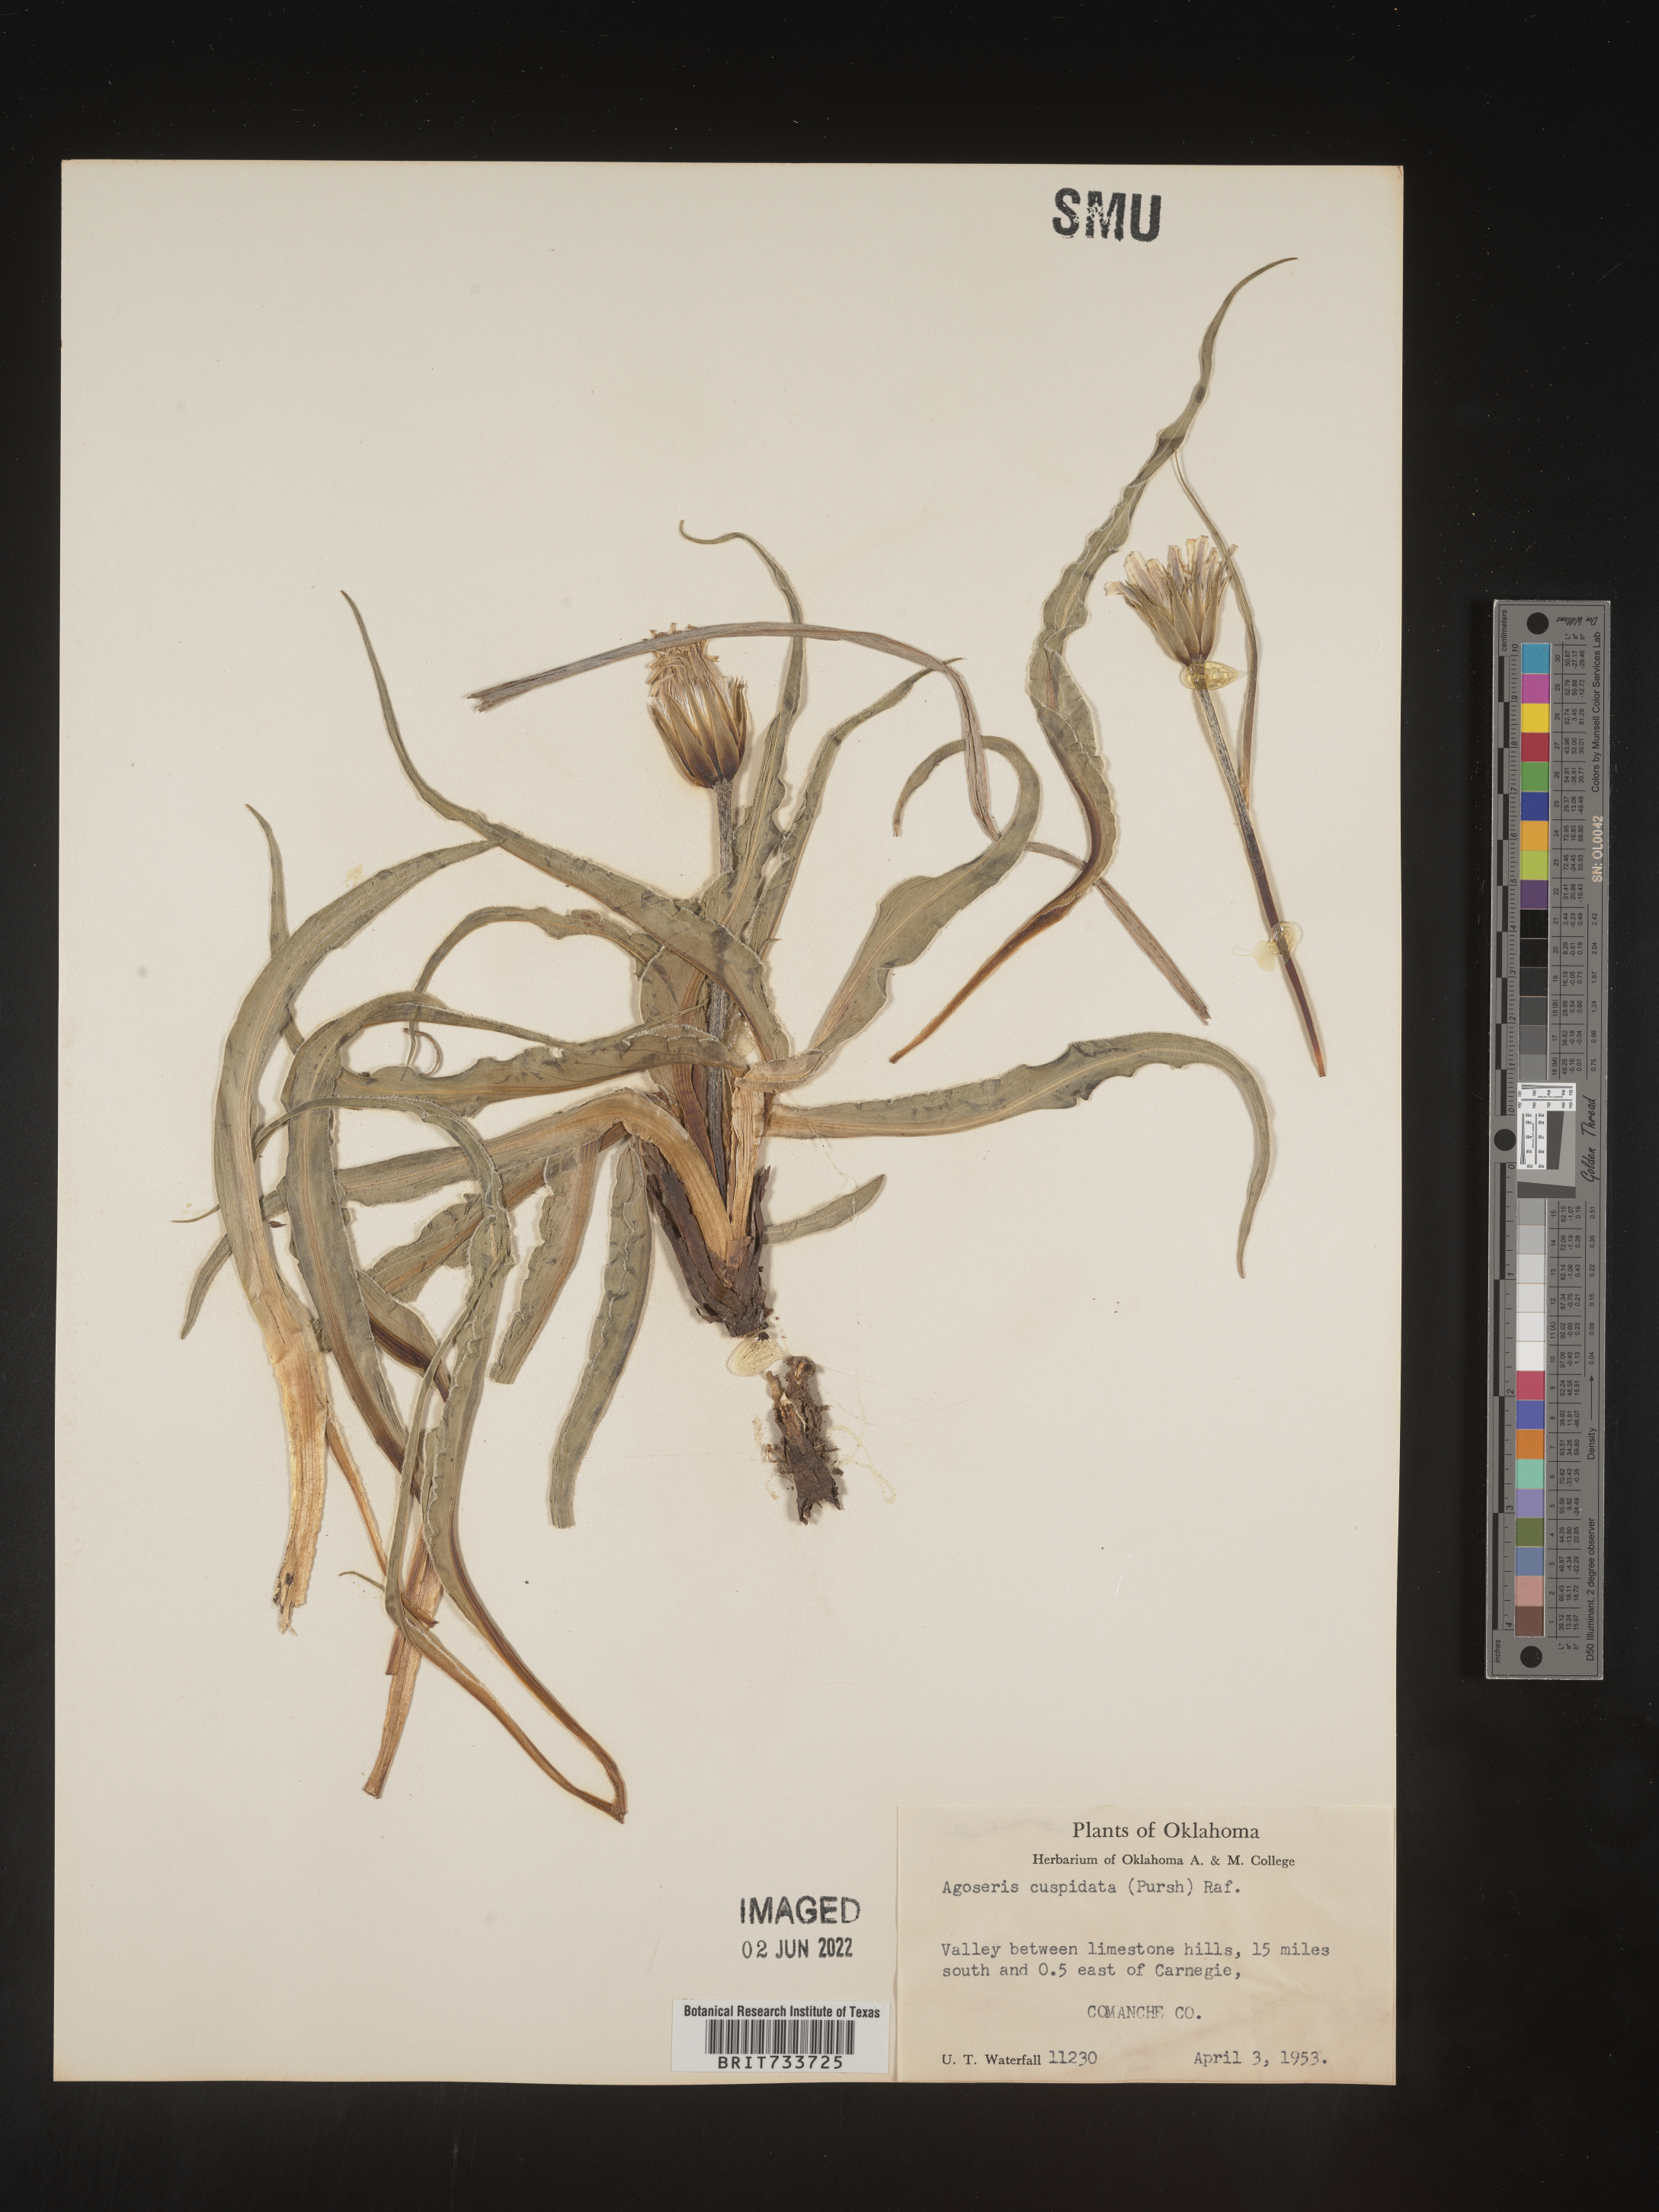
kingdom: Plantae
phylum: Tracheophyta
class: Magnoliopsida
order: Asterales
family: Asteraceae
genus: Microseris
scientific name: Microseris cuspidata
